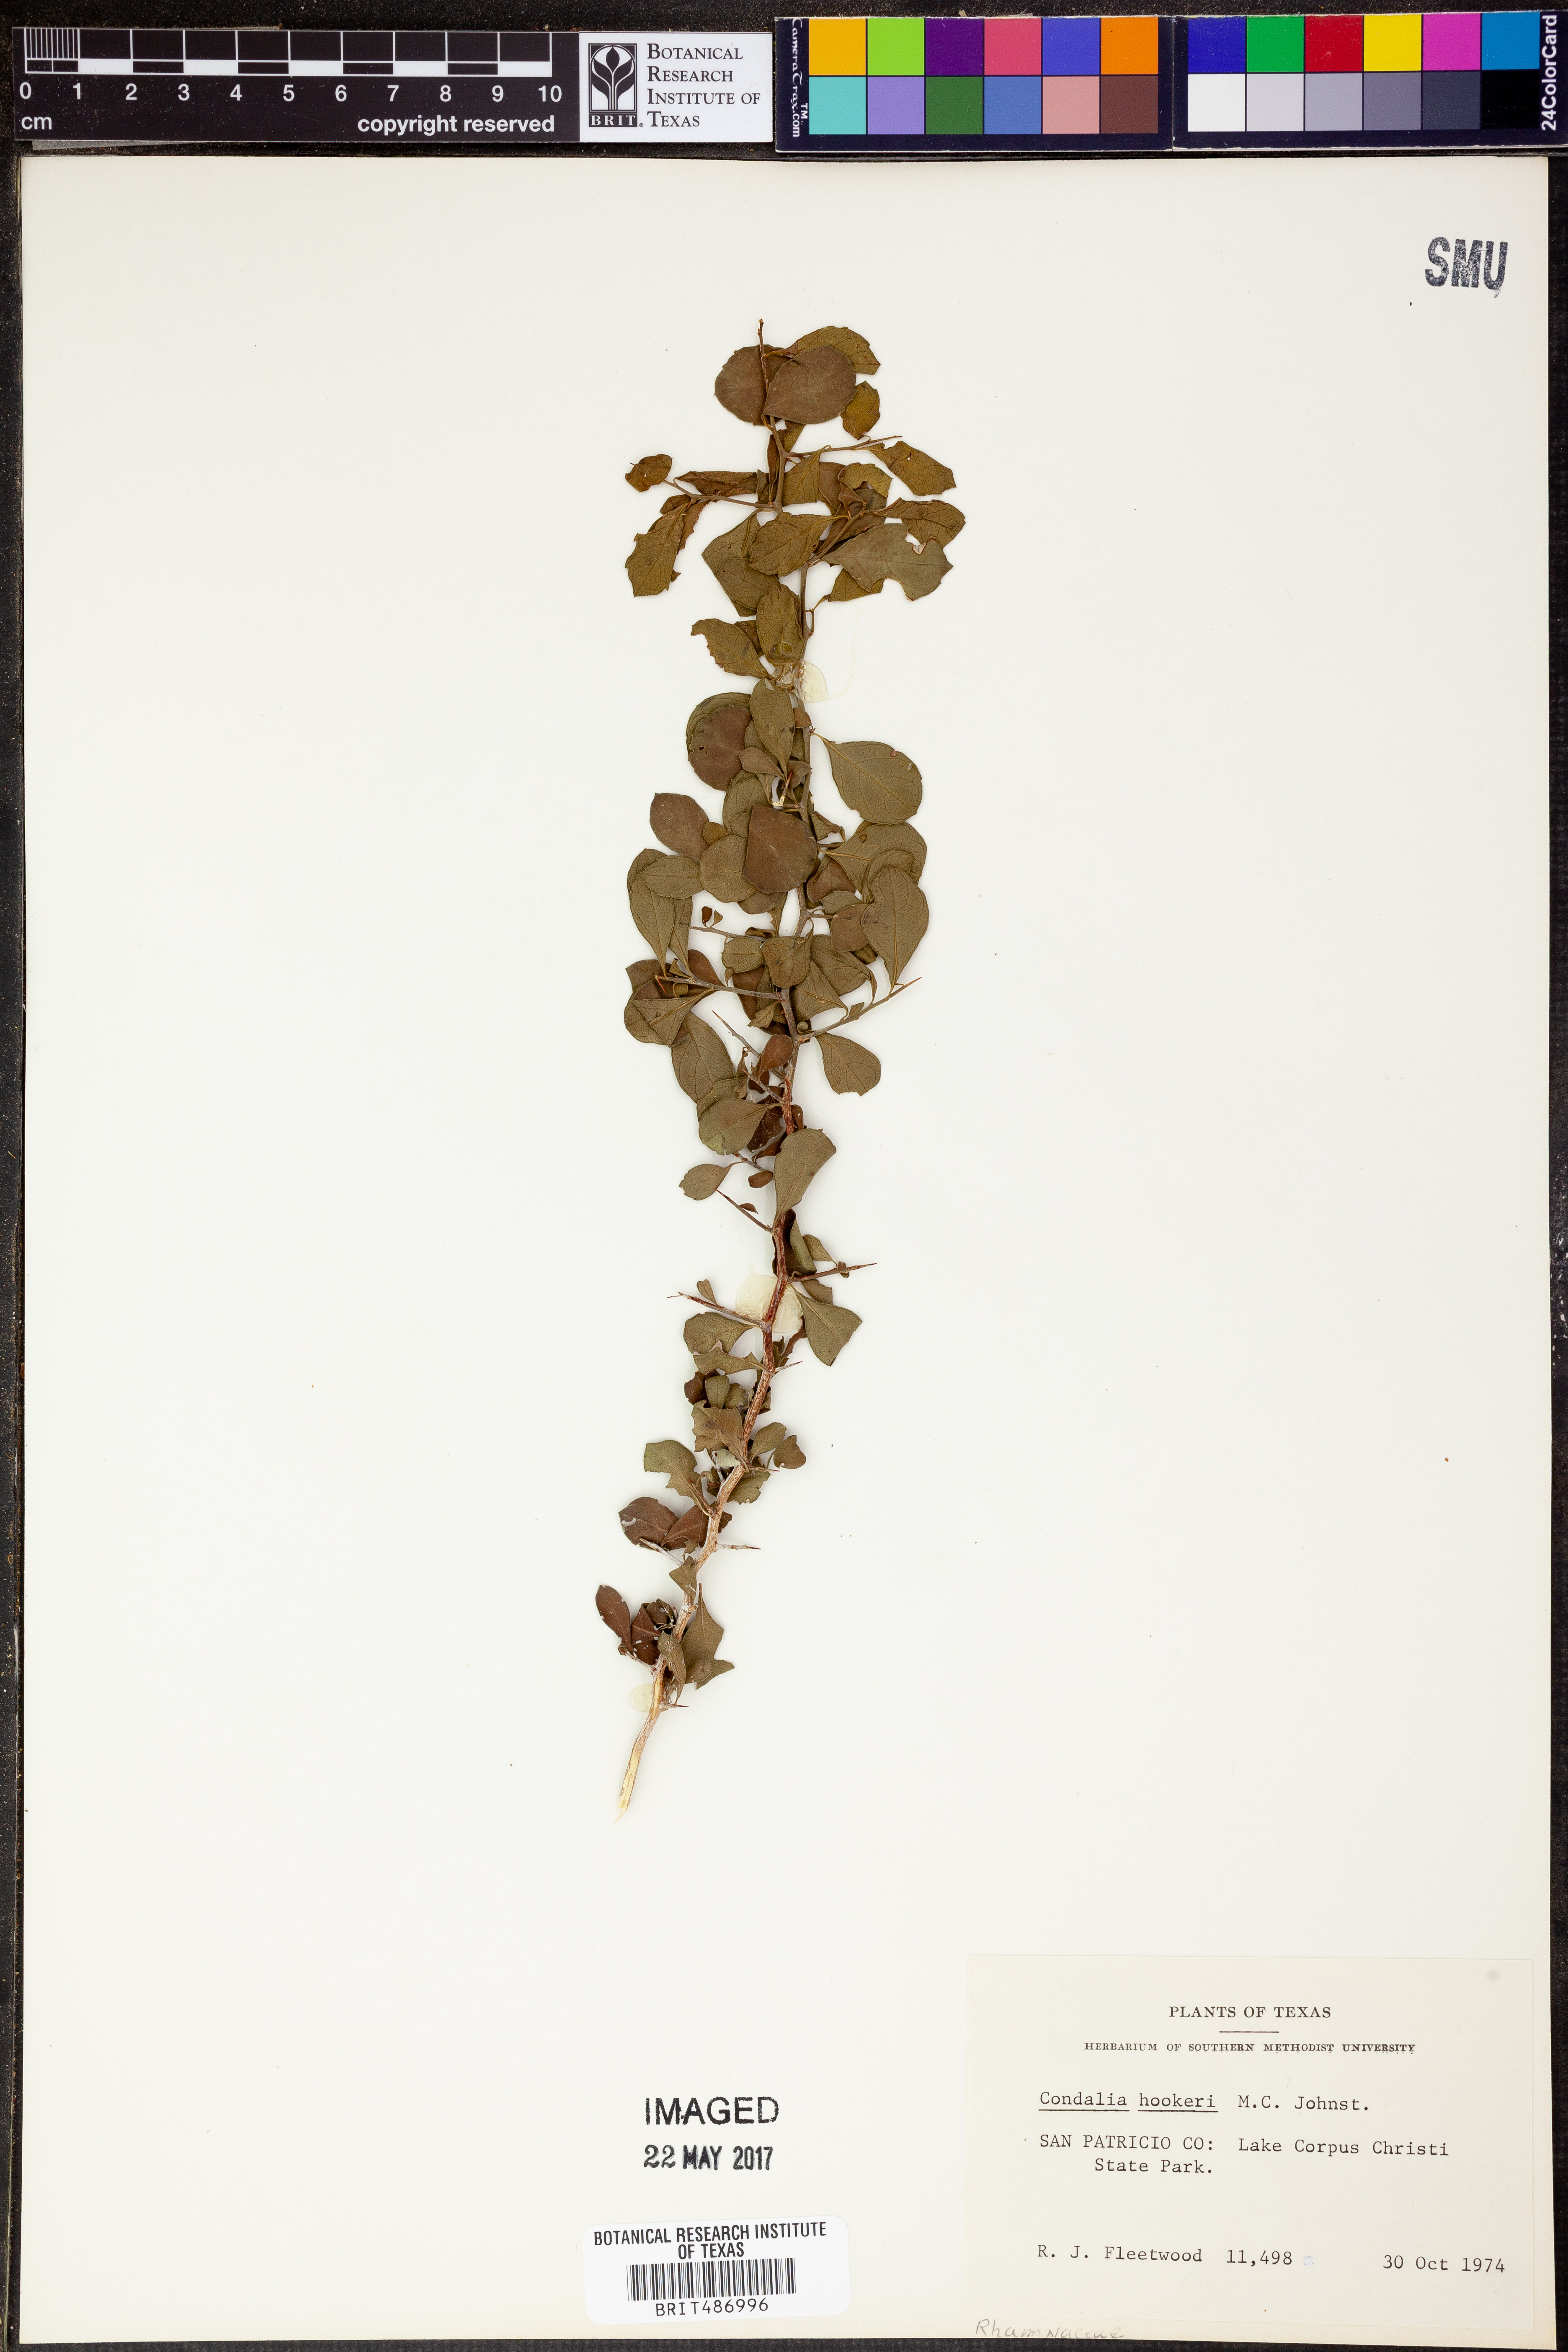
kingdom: Plantae
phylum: Tracheophyta
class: Magnoliopsida
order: Rosales
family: Rhamnaceae
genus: Condalia
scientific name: Condalia hookeri
